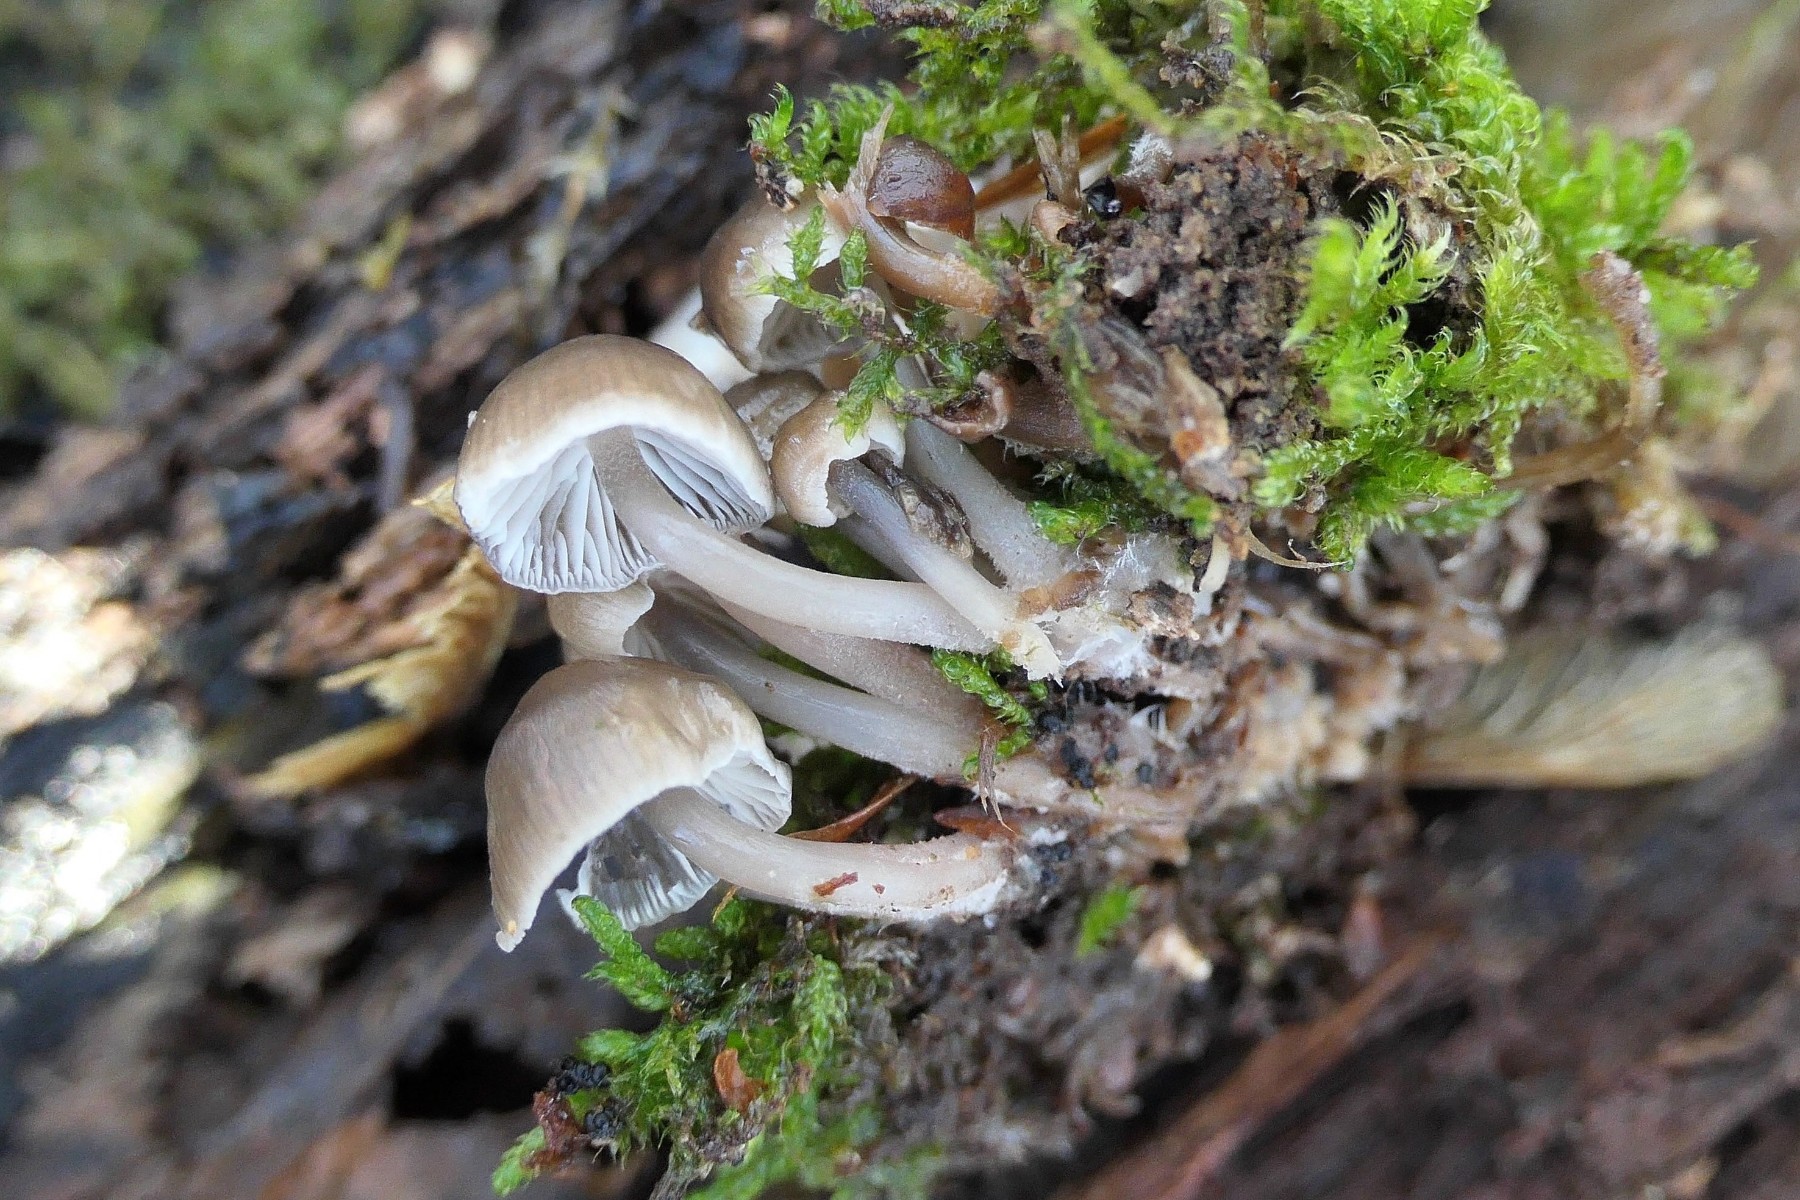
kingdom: Fungi
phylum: Basidiomycota
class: Agaricomycetes
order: Agaricales
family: Mycenaceae
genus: Mycena
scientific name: Mycena tintinnabulum
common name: vinter-huesvamp
